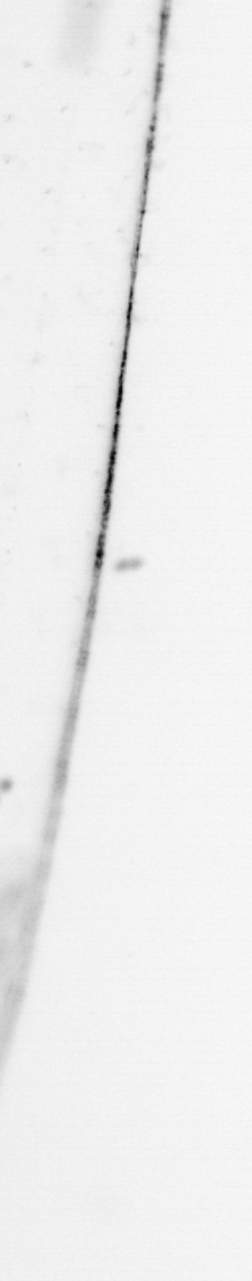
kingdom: Chromista
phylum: Ochrophyta
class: Bacillariophyceae
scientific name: Bacillariophyceae
